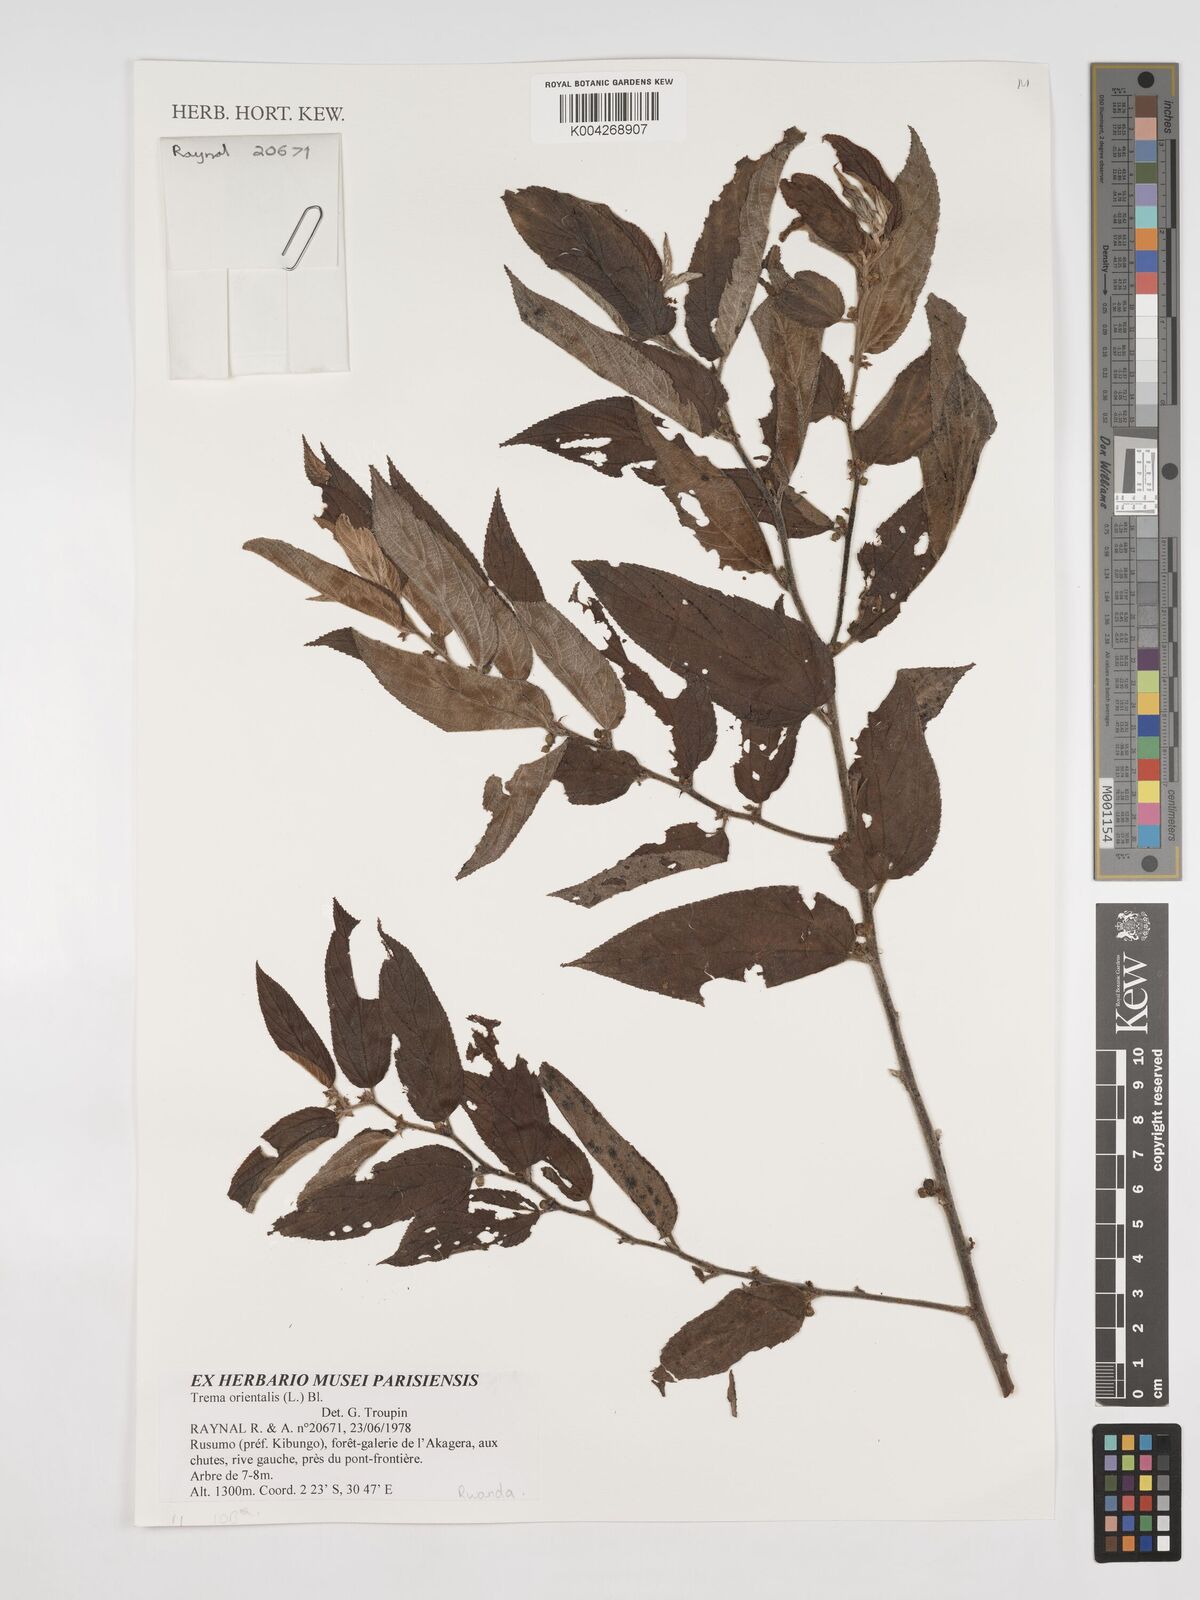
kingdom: Plantae
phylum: Tracheophyta
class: Magnoliopsida
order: Rosales
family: Cannabaceae
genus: Trema
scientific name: Trema orientale
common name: Indian charcoal tree
